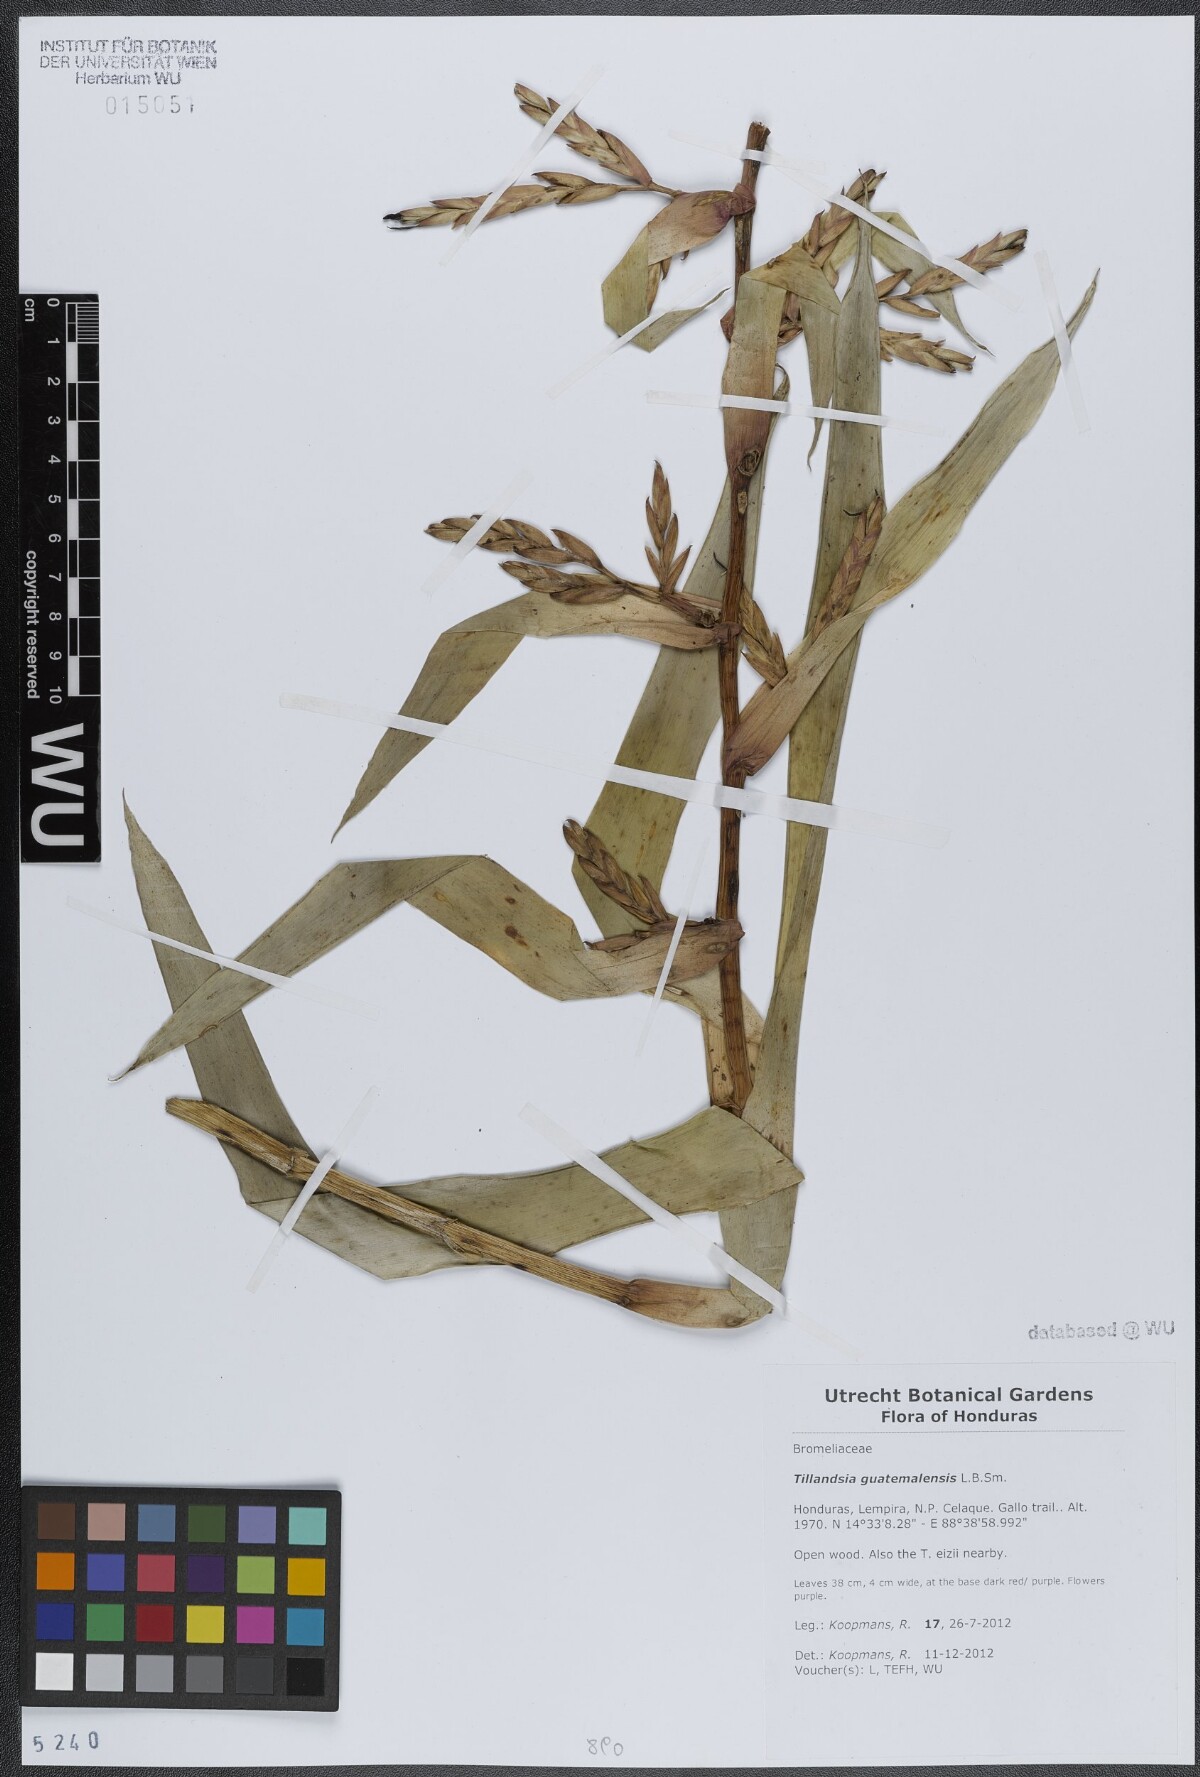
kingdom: Plantae
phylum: Tracheophyta
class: Liliopsida
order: Poales
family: Bromeliaceae
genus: Tillandsia
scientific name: Tillandsia guatemalensis
